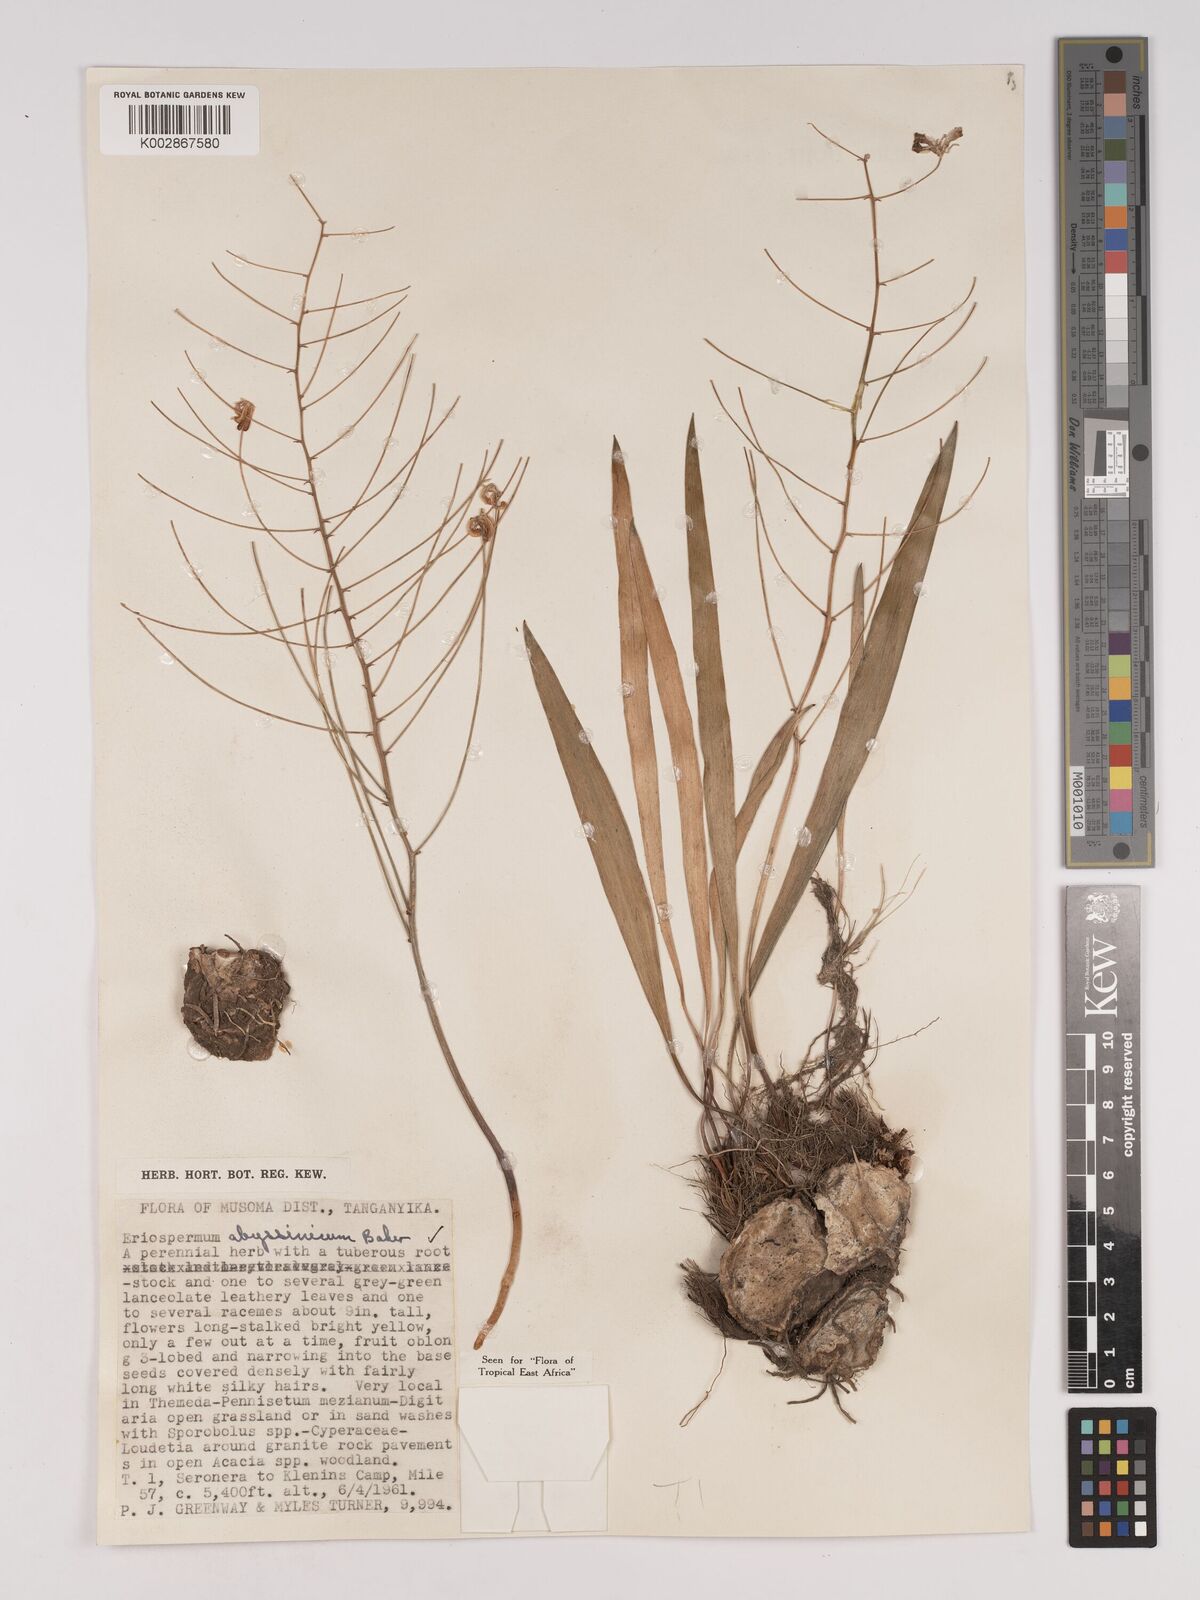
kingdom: Plantae
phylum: Tracheophyta
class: Liliopsida
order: Asparagales
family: Asparagaceae
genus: Eriospermum
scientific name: Eriospermum abyssinicum
